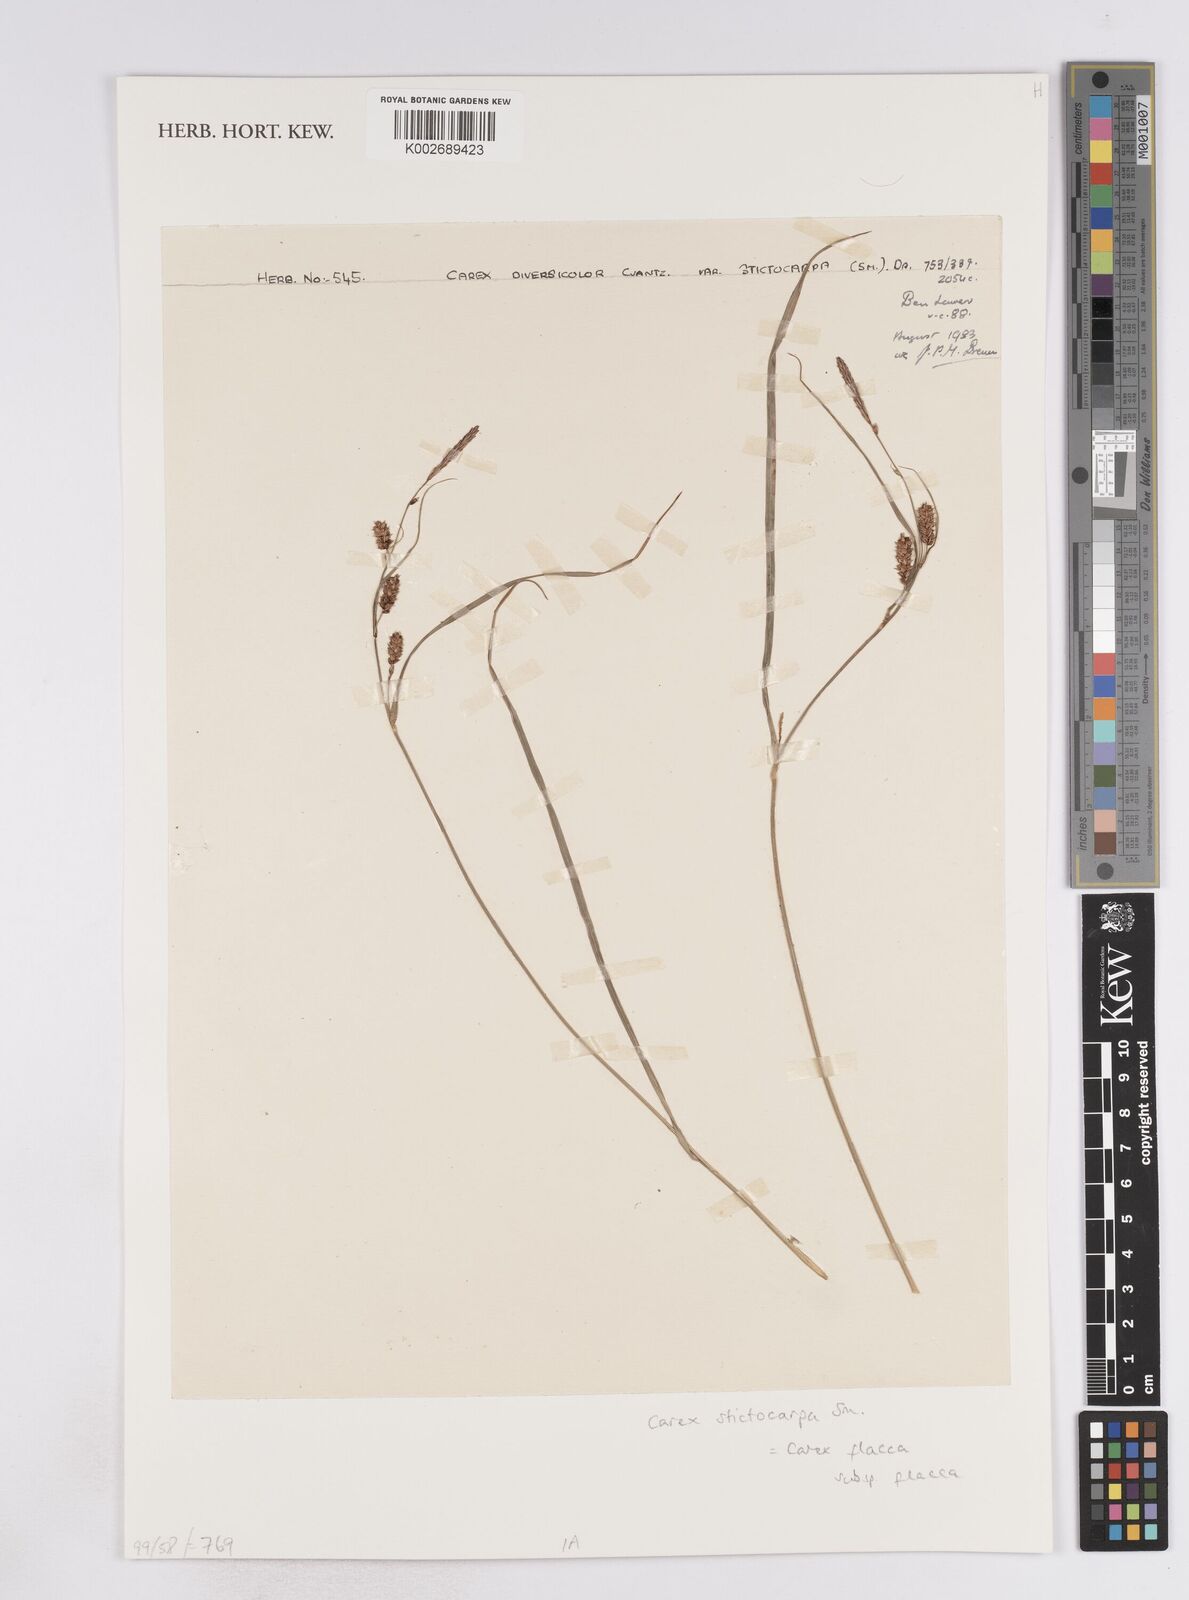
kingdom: Plantae
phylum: Tracheophyta
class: Liliopsida
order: Poales
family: Cyperaceae
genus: Carex
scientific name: Carex flacca
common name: Glaucous sedge
